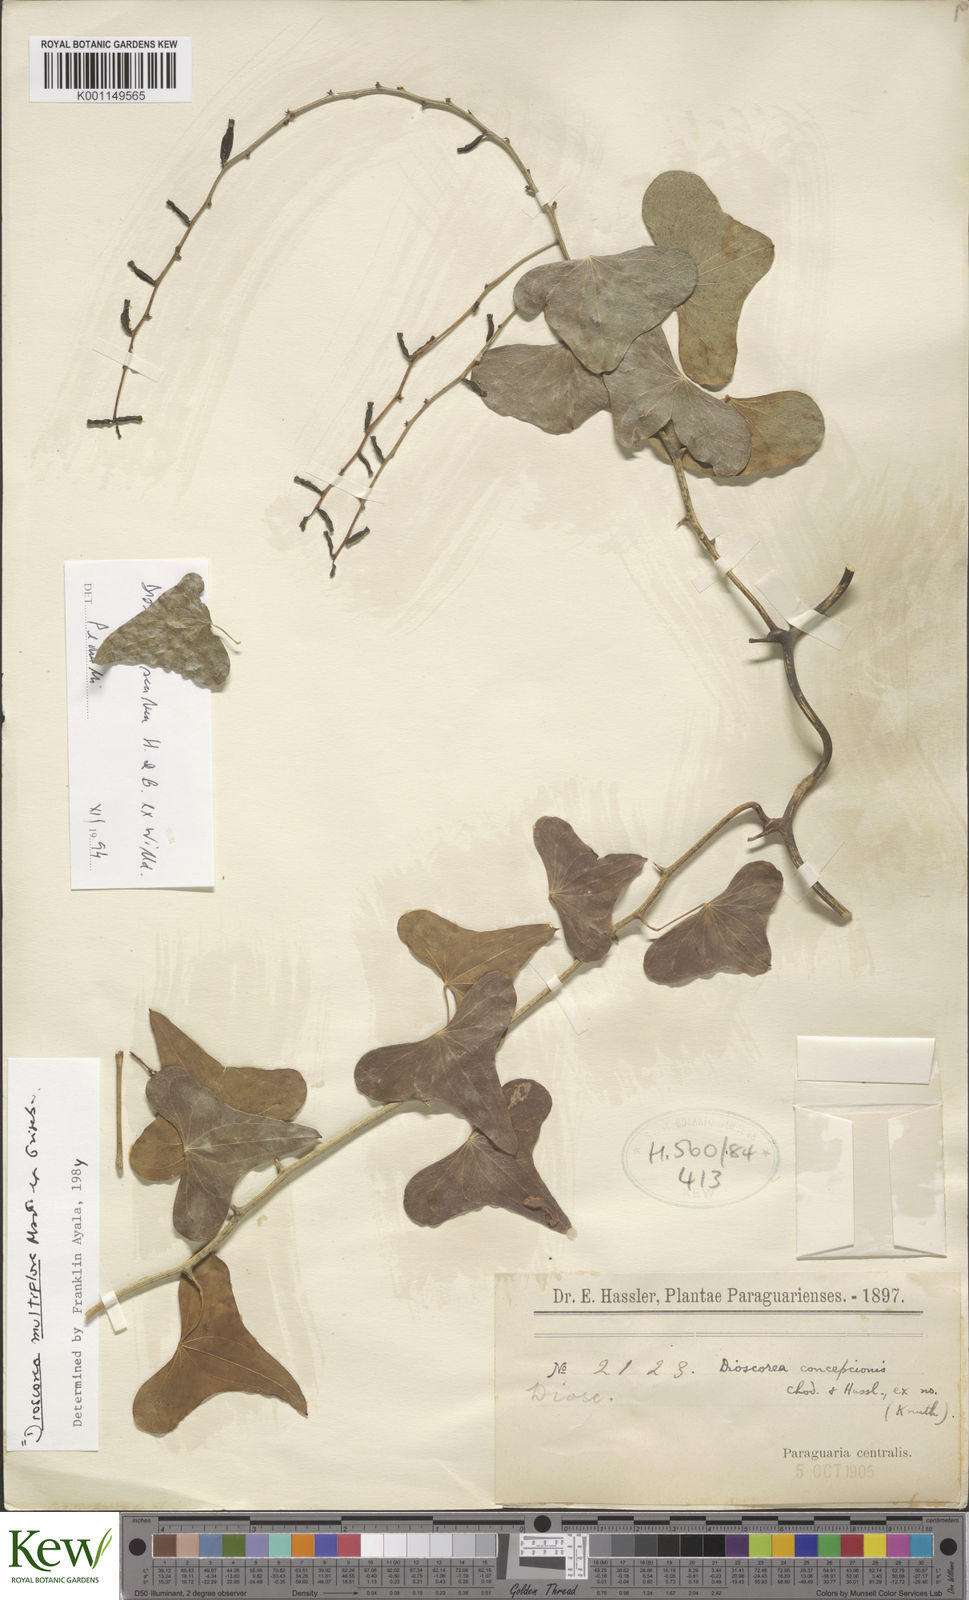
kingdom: Plantae
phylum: Tracheophyta
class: Liliopsida
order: Dioscoreales
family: Dioscoreaceae
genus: Dioscorea
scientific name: Dioscorea multiflora
